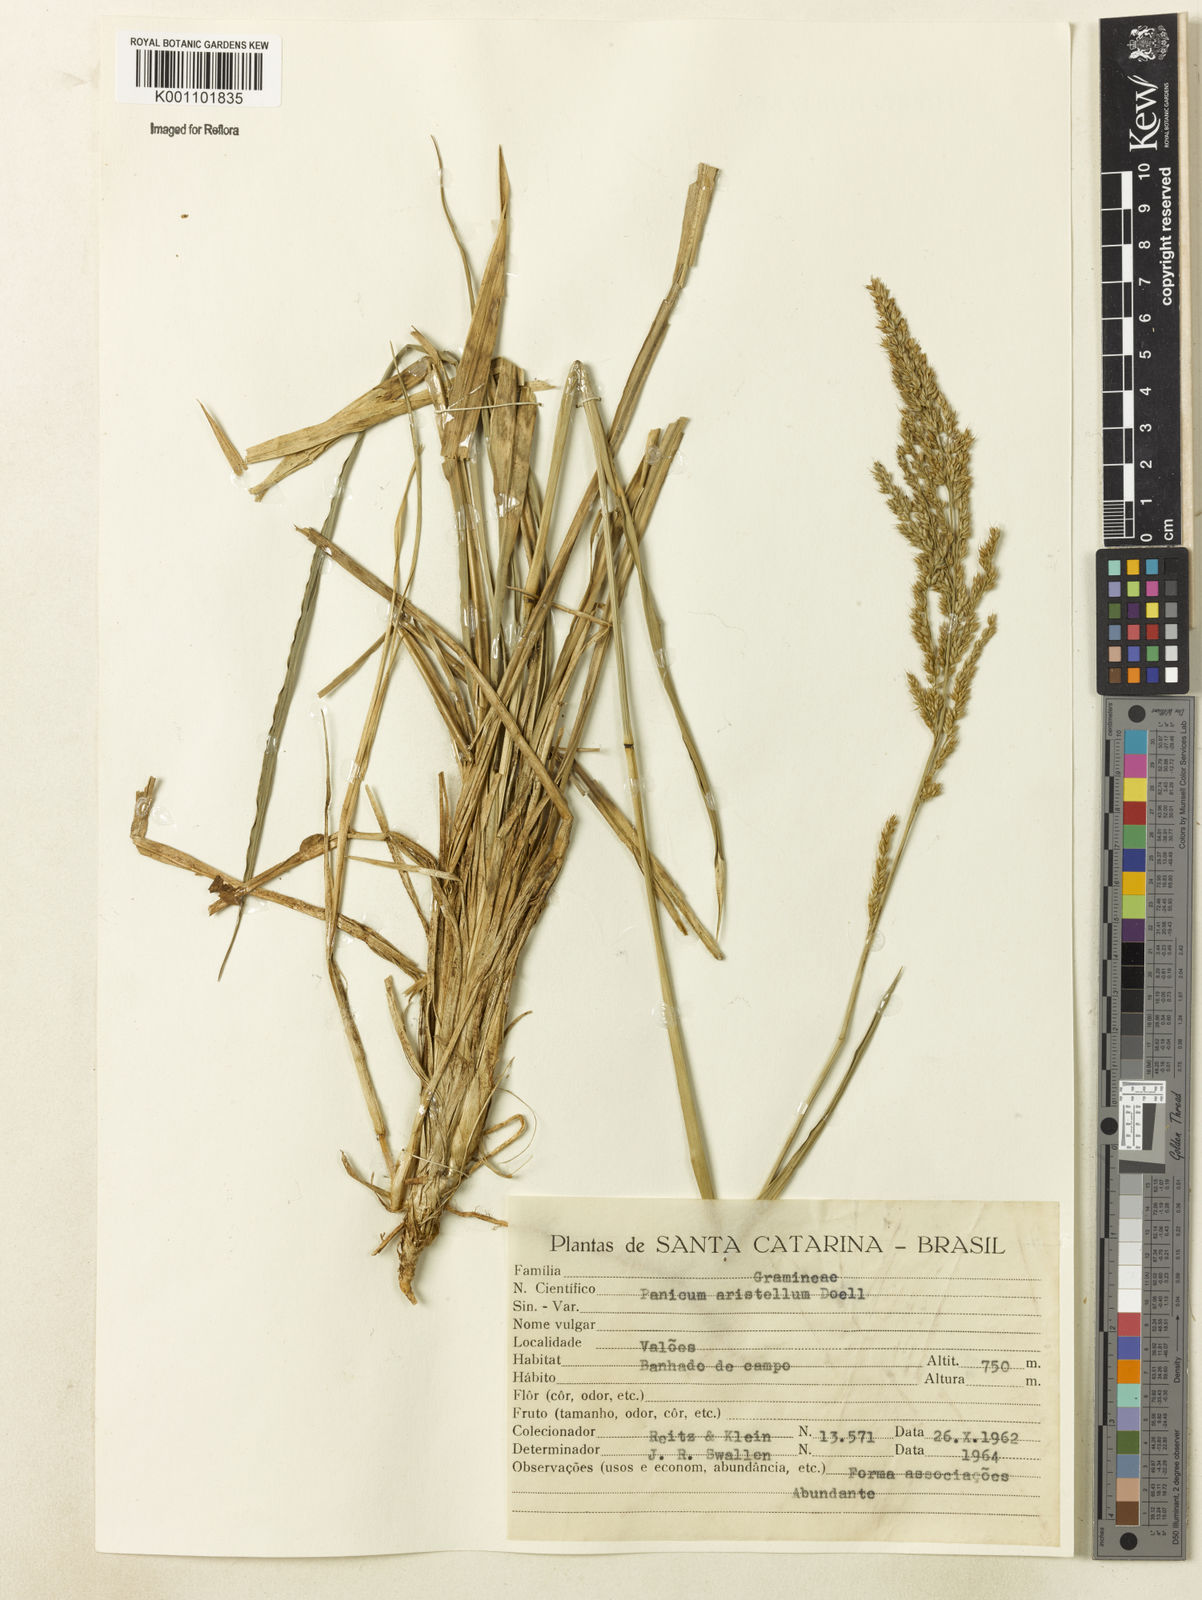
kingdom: Plantae
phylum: Tracheophyta
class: Liliopsida
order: Poales
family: Poaceae
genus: Panicum
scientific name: Panicum
